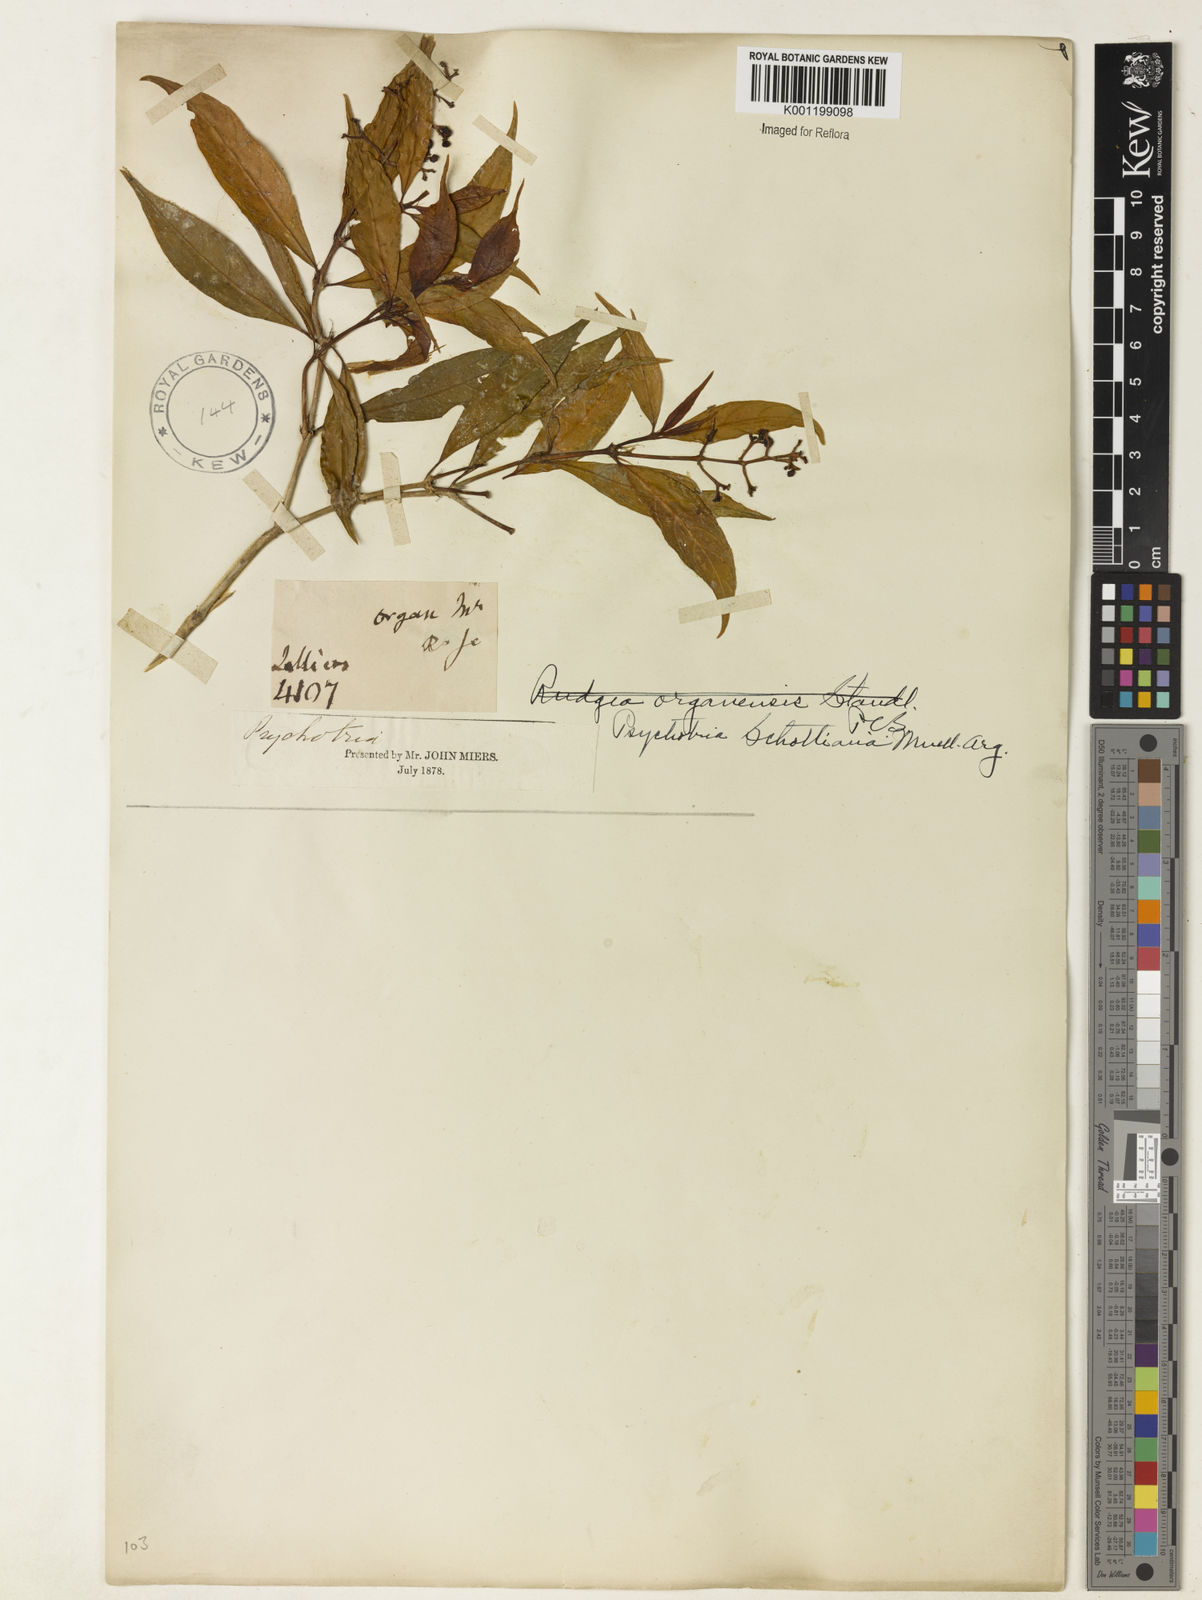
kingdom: Plantae
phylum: Tracheophyta
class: Magnoliopsida
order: Gentianales
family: Rubiaceae
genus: Psychotria
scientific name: Psychotria
